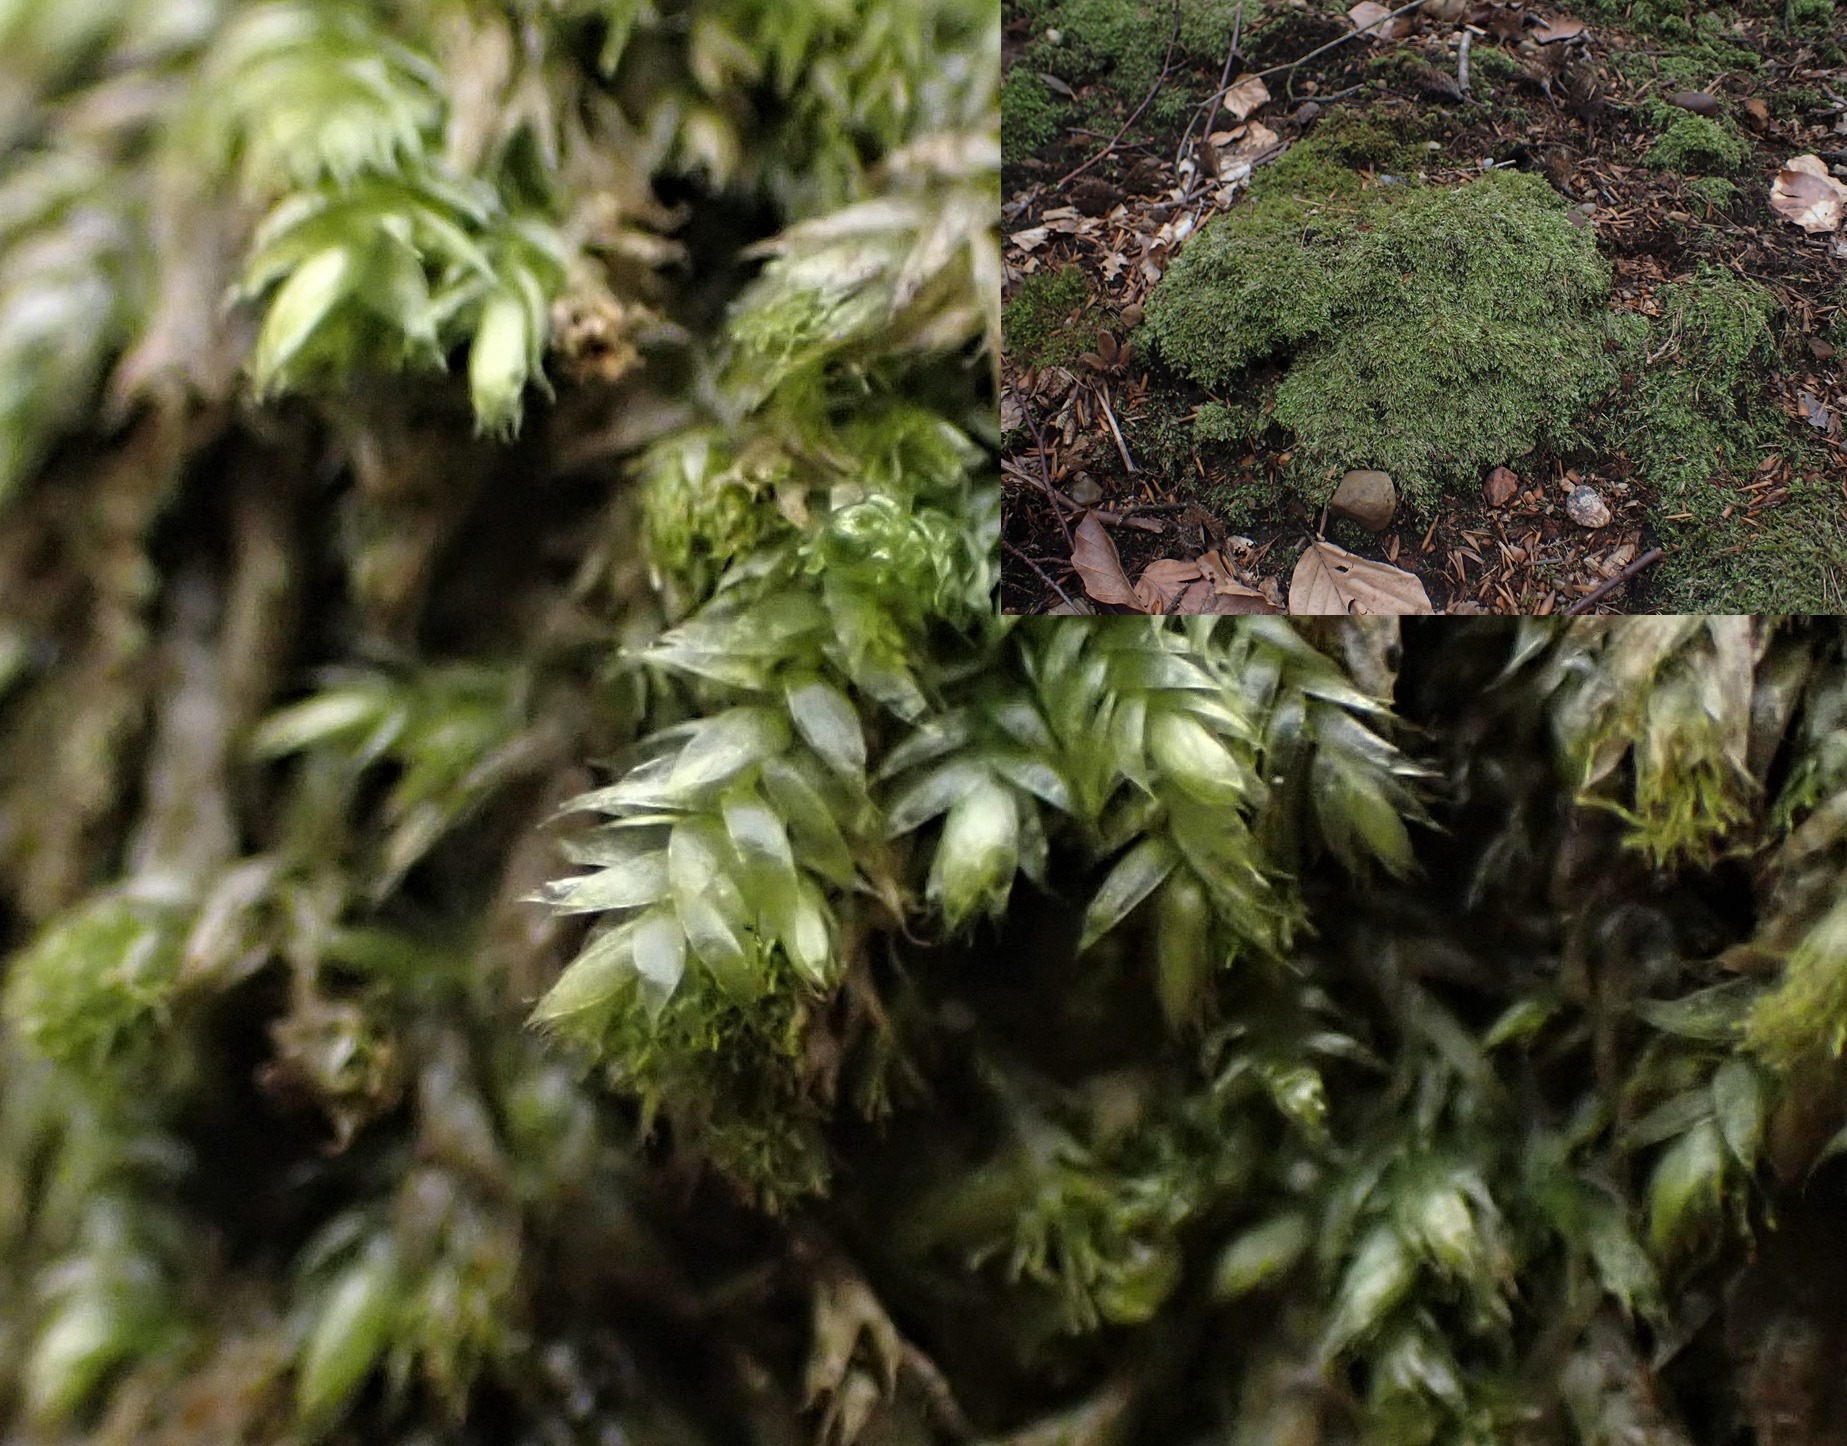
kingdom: Plantae
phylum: Bryophyta
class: Bryopsida
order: Hypnales
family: Plagiotheciaceae
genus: Pseudotaxiphyllum
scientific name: Pseudotaxiphyllum elegans
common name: Skinnende ynglegren
